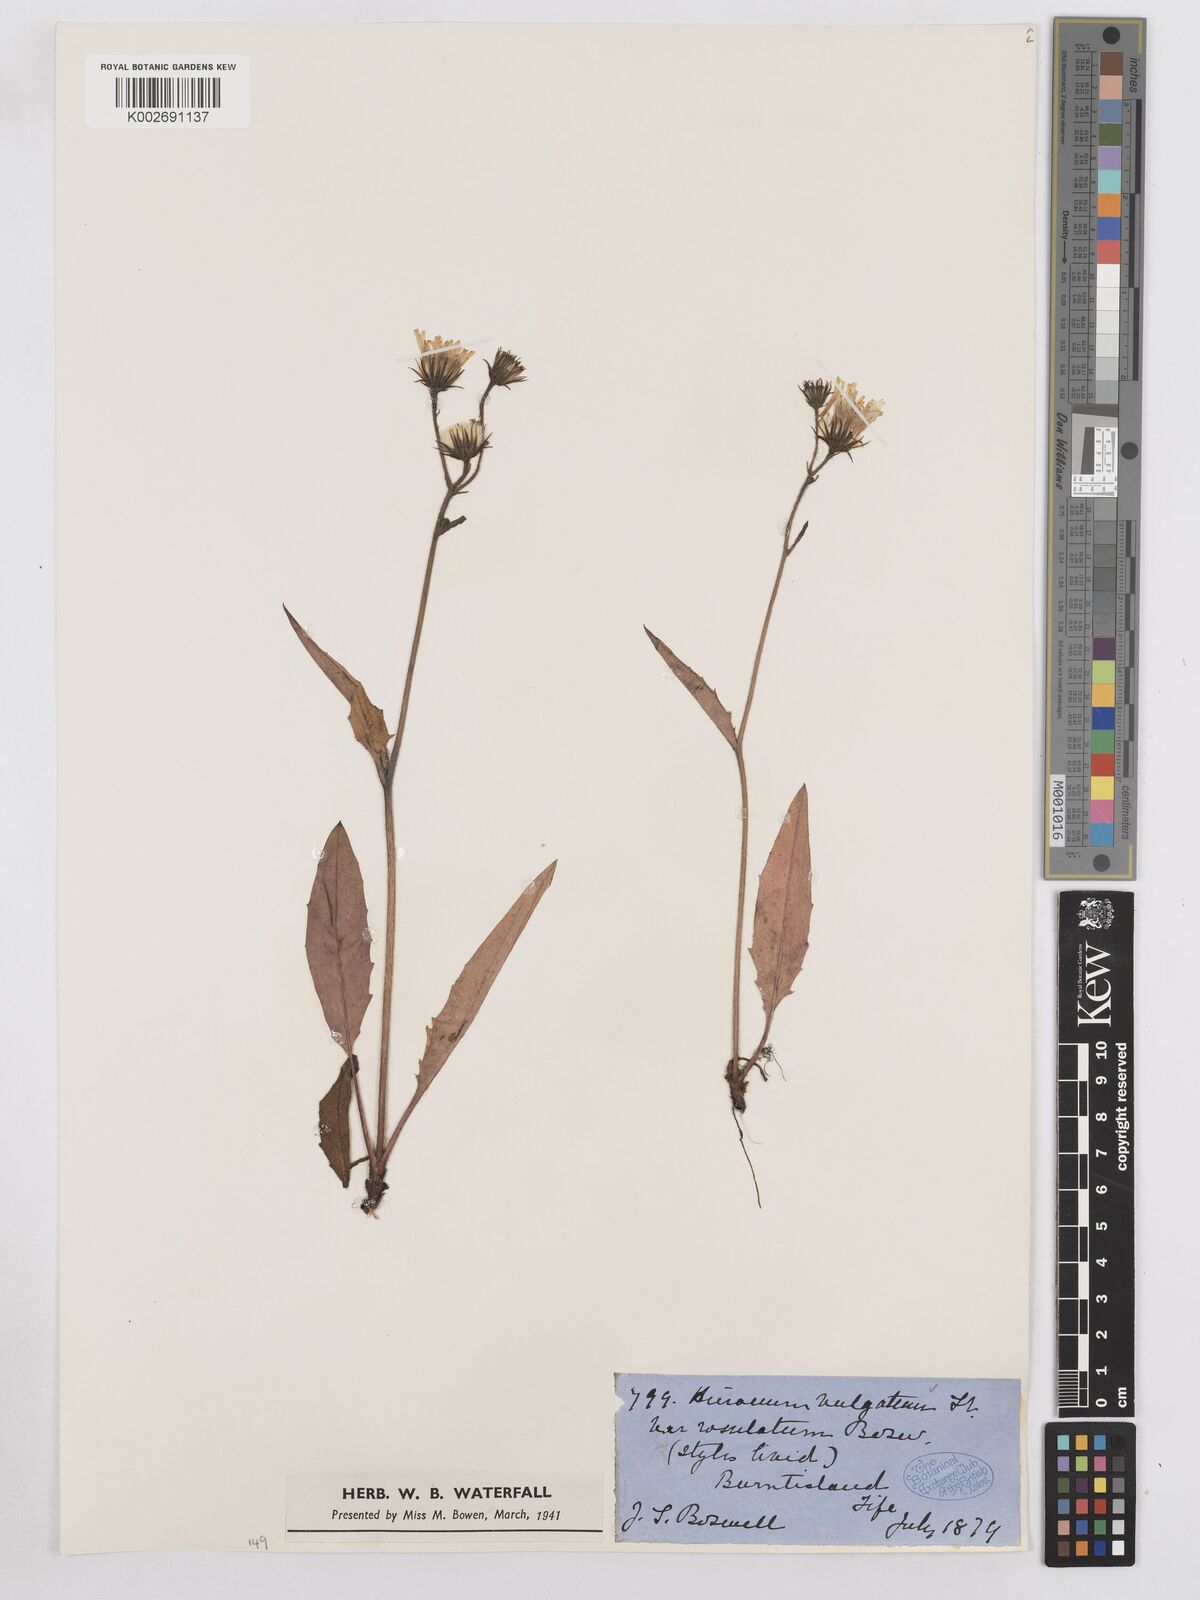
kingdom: Plantae
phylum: Tracheophyta
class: Magnoliopsida
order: Asterales
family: Asteraceae
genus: Hieracium
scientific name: Hieracium lachenalii
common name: Common hawkweed
